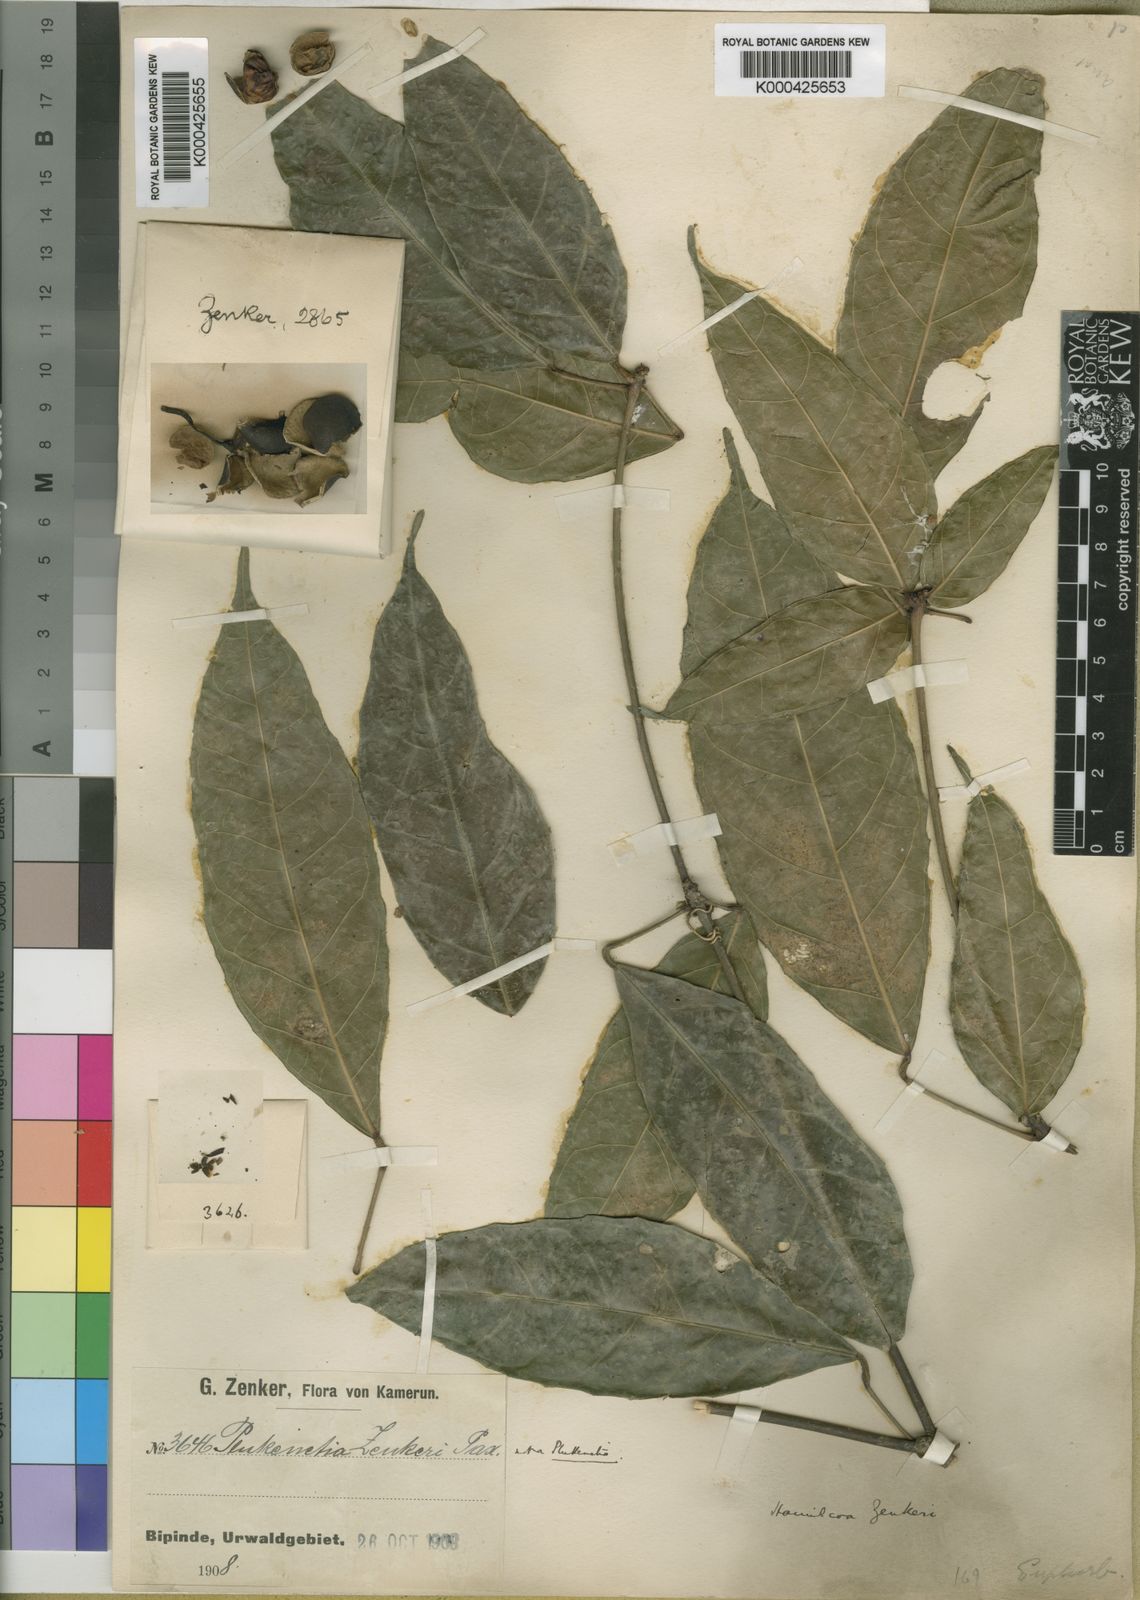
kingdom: Plantae
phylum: Tracheophyta
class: Magnoliopsida
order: Malpighiales
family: Euphorbiaceae
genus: Hamilcoa
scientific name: Hamilcoa zenkeri
